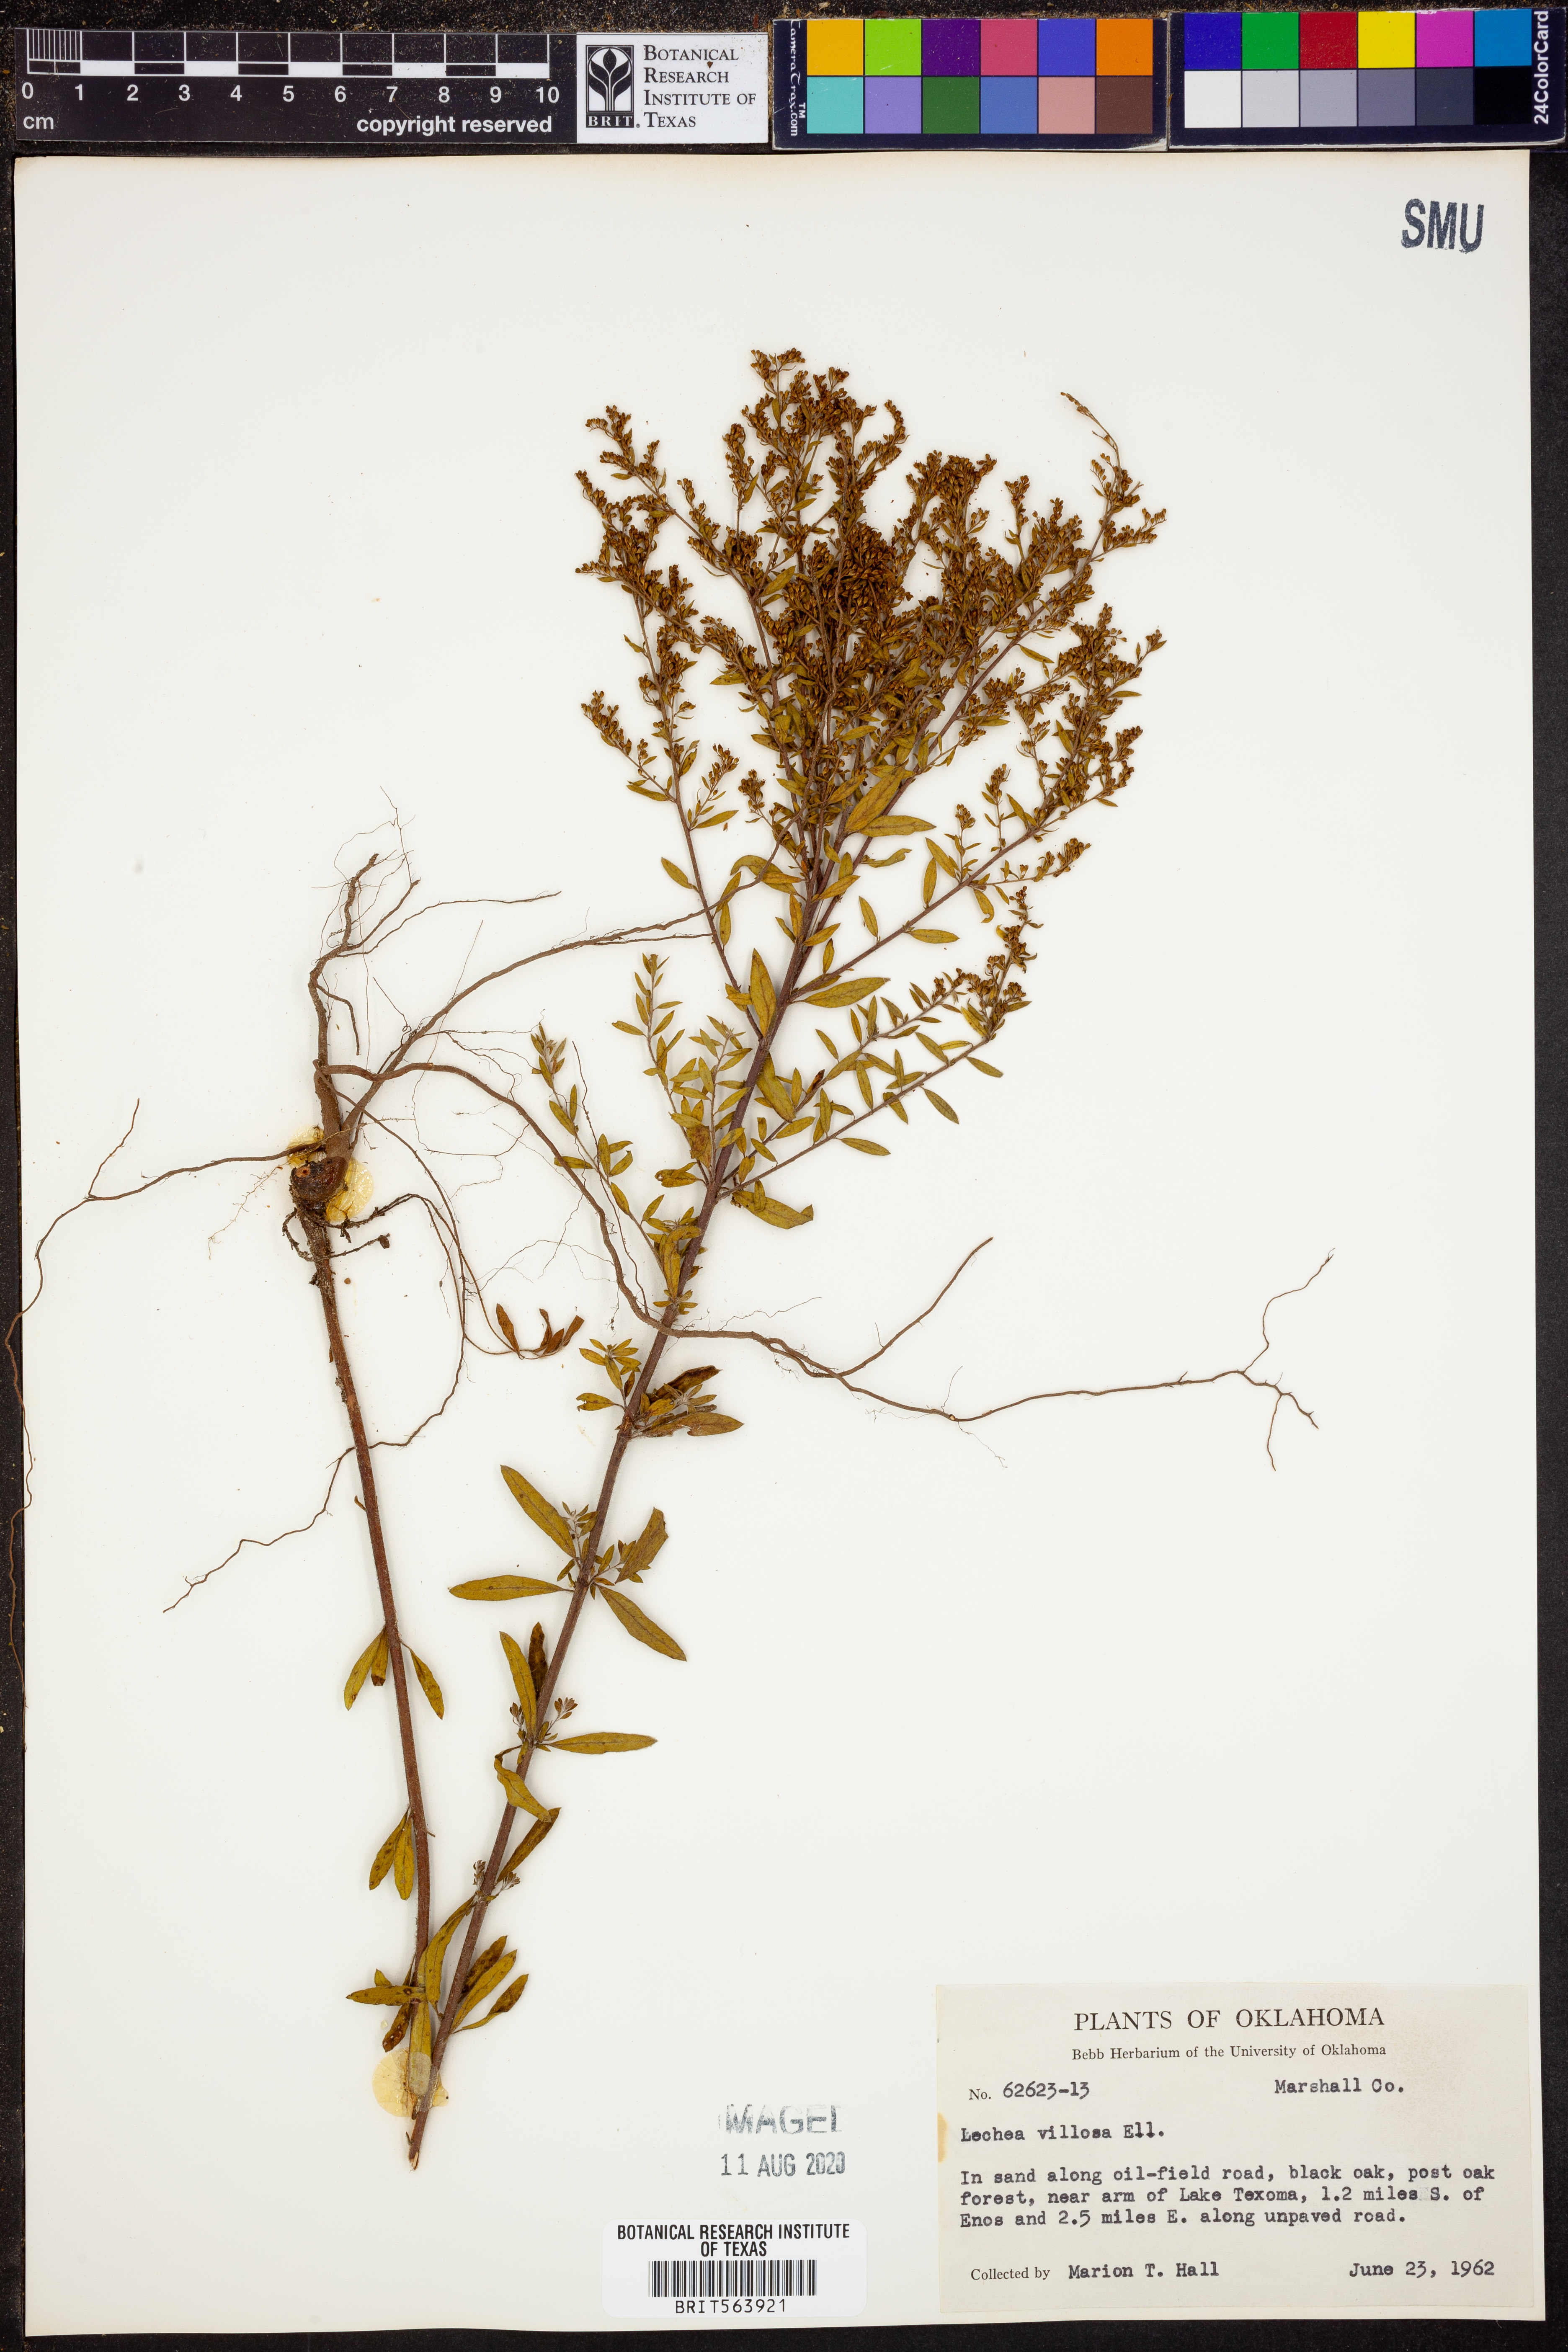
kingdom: Plantae
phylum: Tracheophyta
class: Magnoliopsida
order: Malvales
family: Cistaceae
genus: Lechea
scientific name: Lechea mucronata
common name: Hairy pinweed
